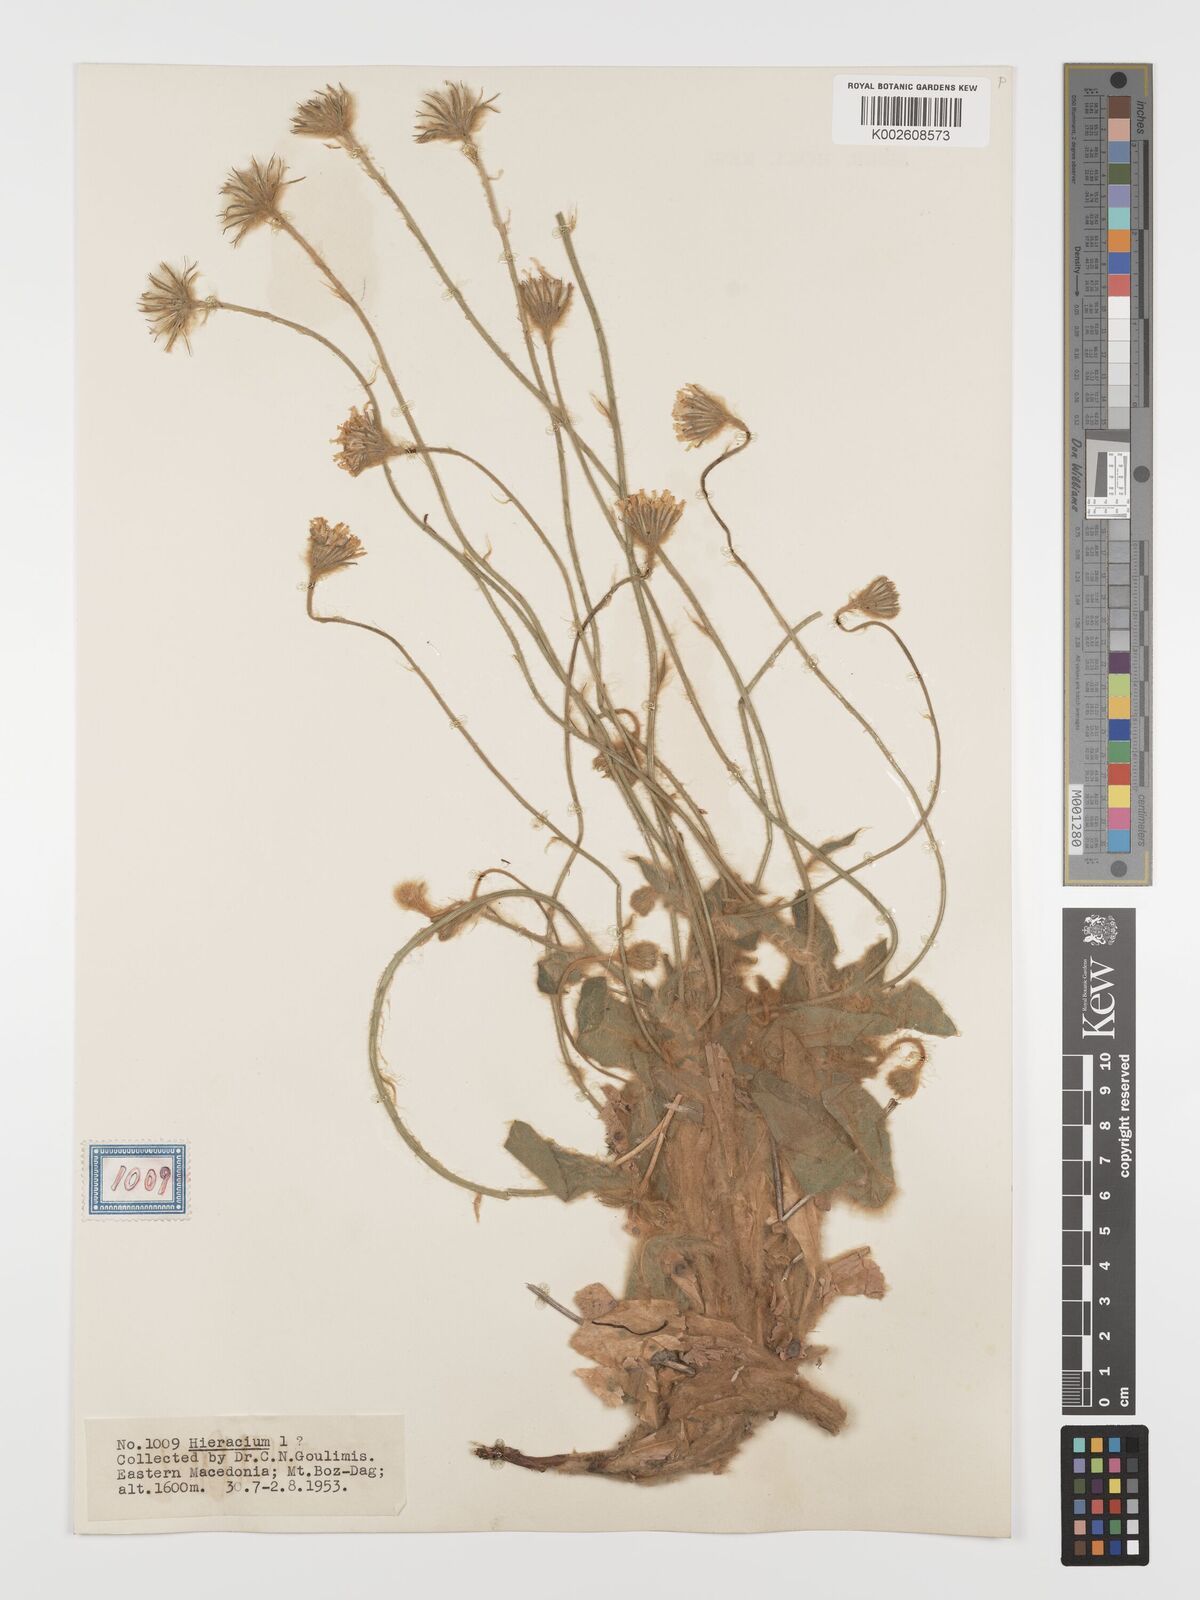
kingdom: Plantae
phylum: Tracheophyta
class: Magnoliopsida
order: Asterales
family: Asteraceae
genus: Hieracium
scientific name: Hieracium pannosum
